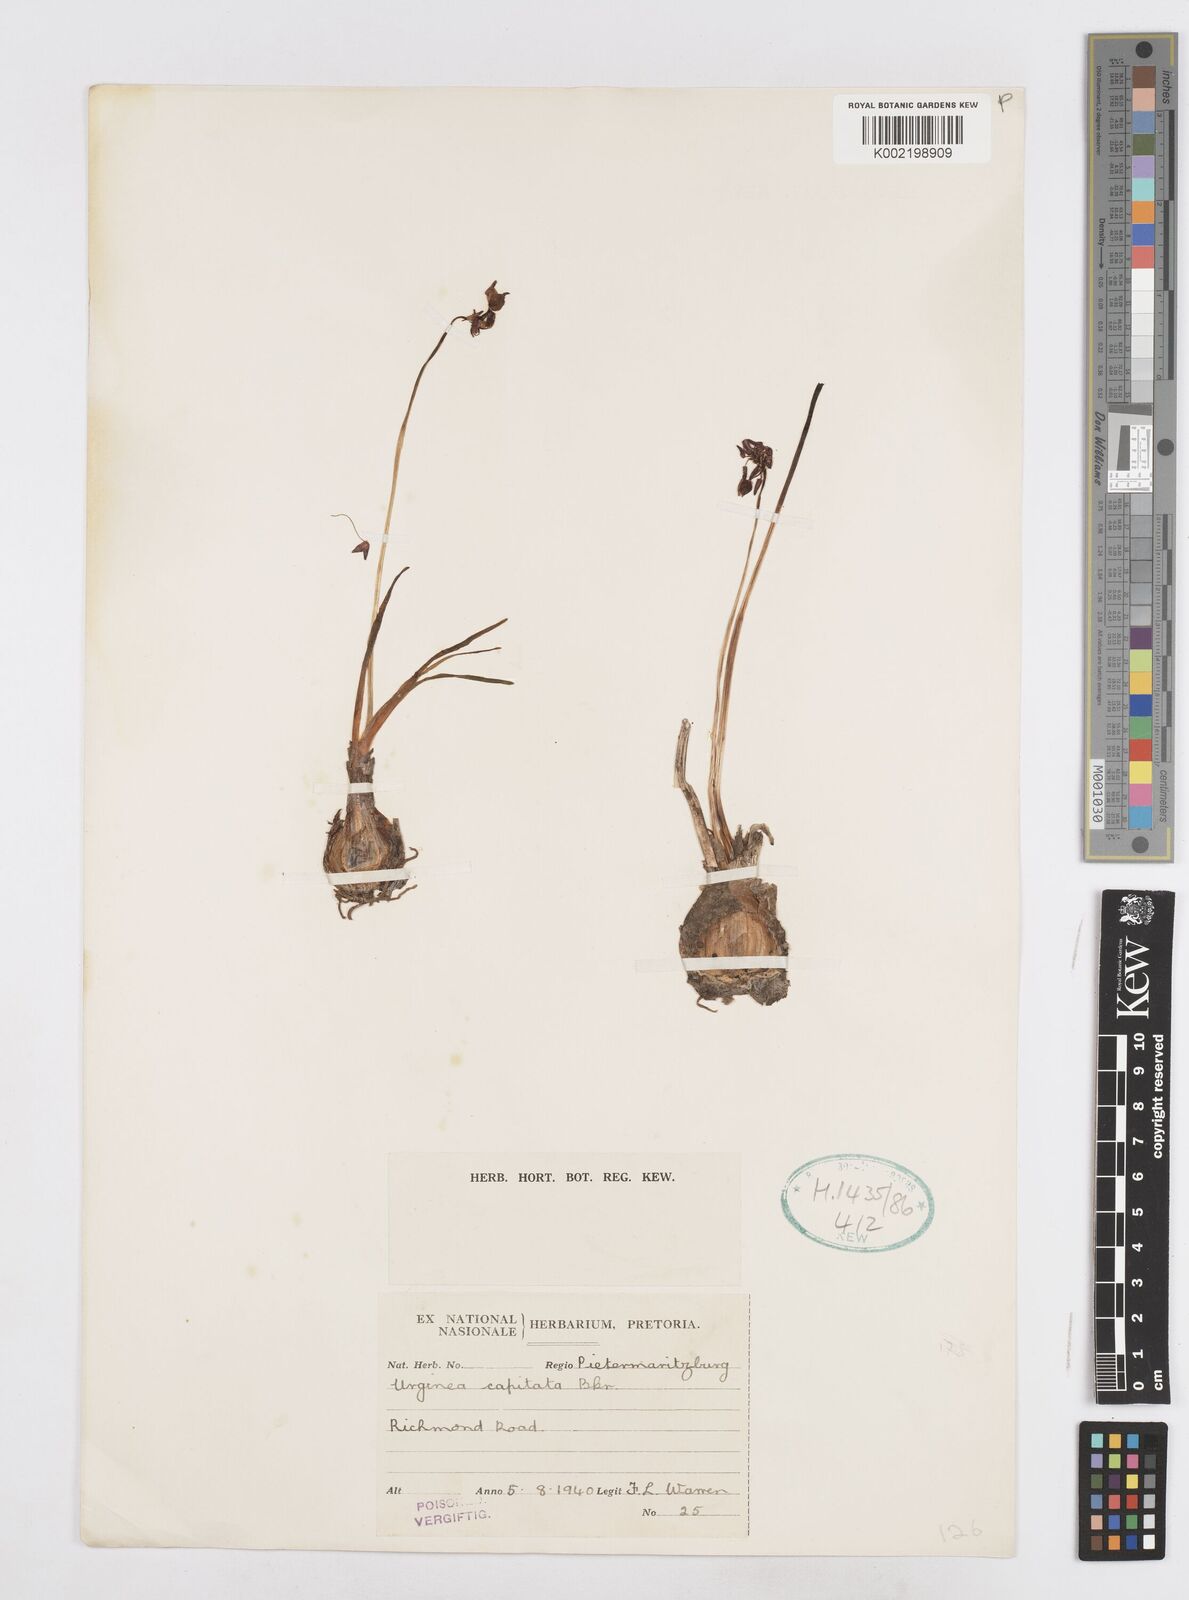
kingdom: Plantae
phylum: Tracheophyta
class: Liliopsida
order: Asparagales
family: Asparagaceae
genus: Drimia
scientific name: Drimia sphaerocephala
